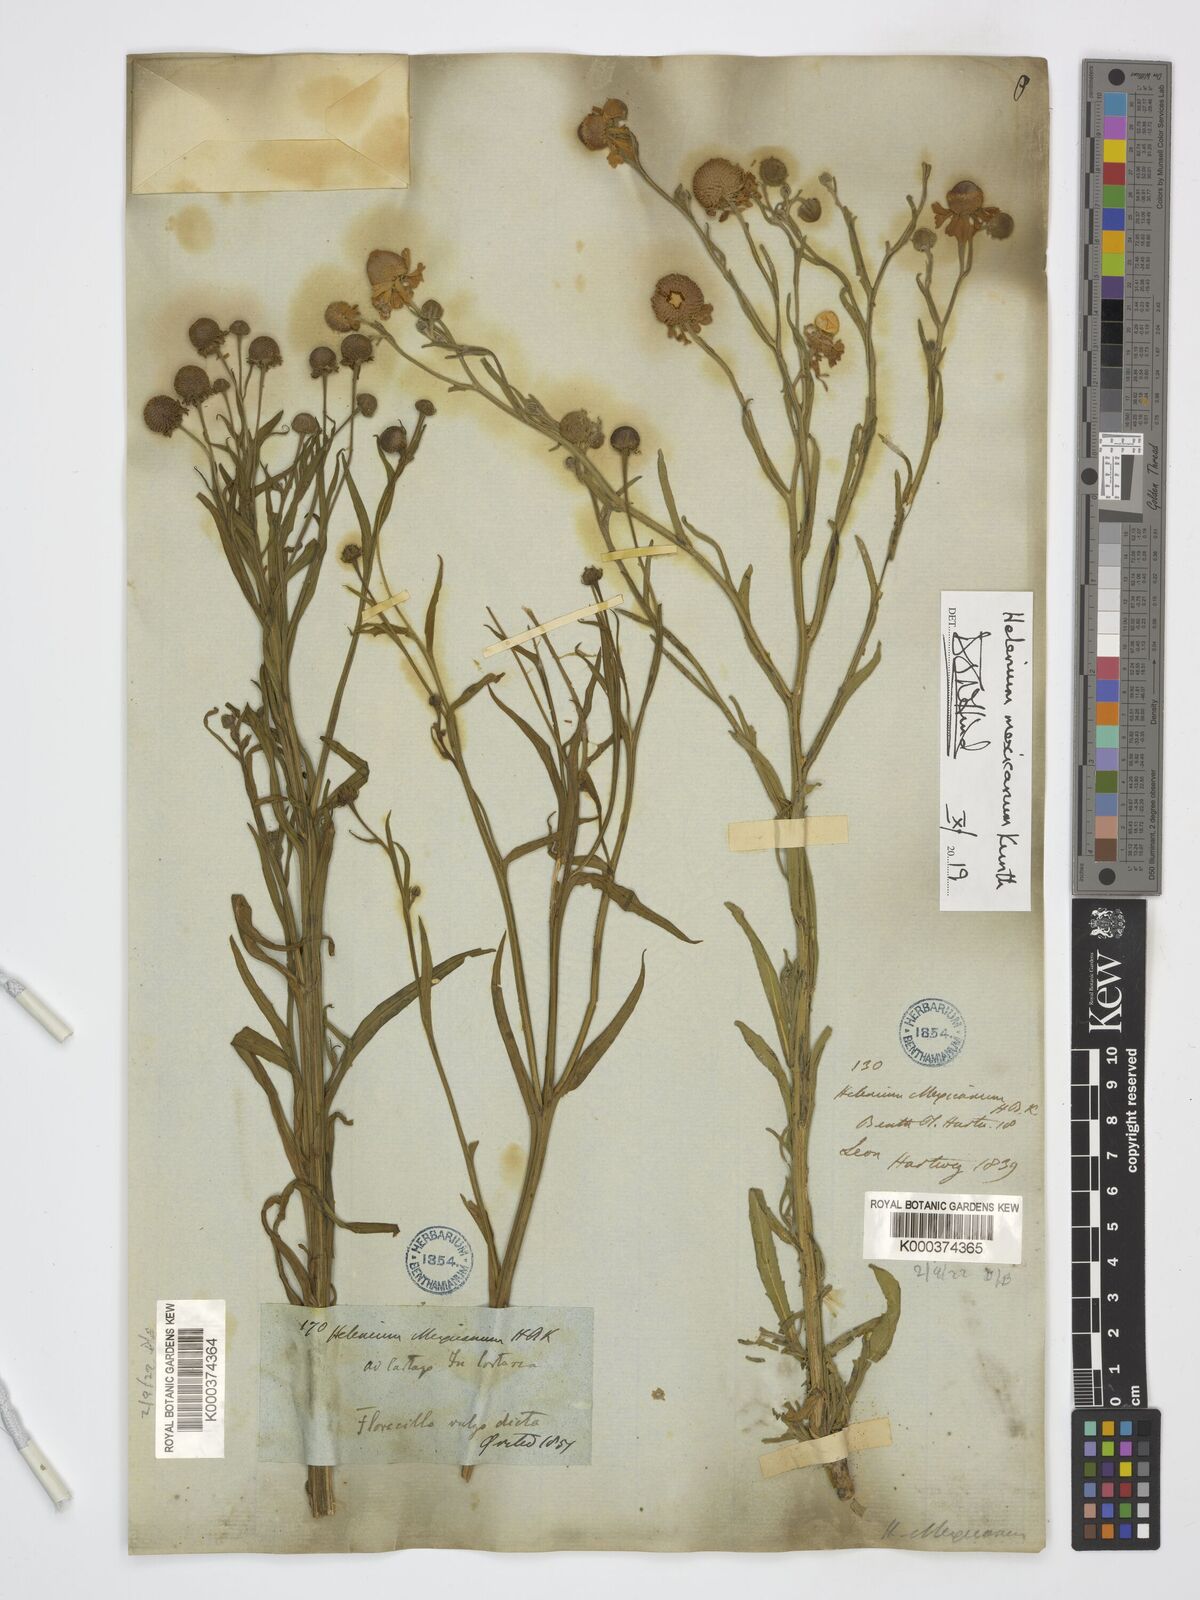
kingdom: Plantae
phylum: Tracheophyta
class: Magnoliopsida
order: Asterales
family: Asteraceae
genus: Helenium
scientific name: Helenium mexicanum
